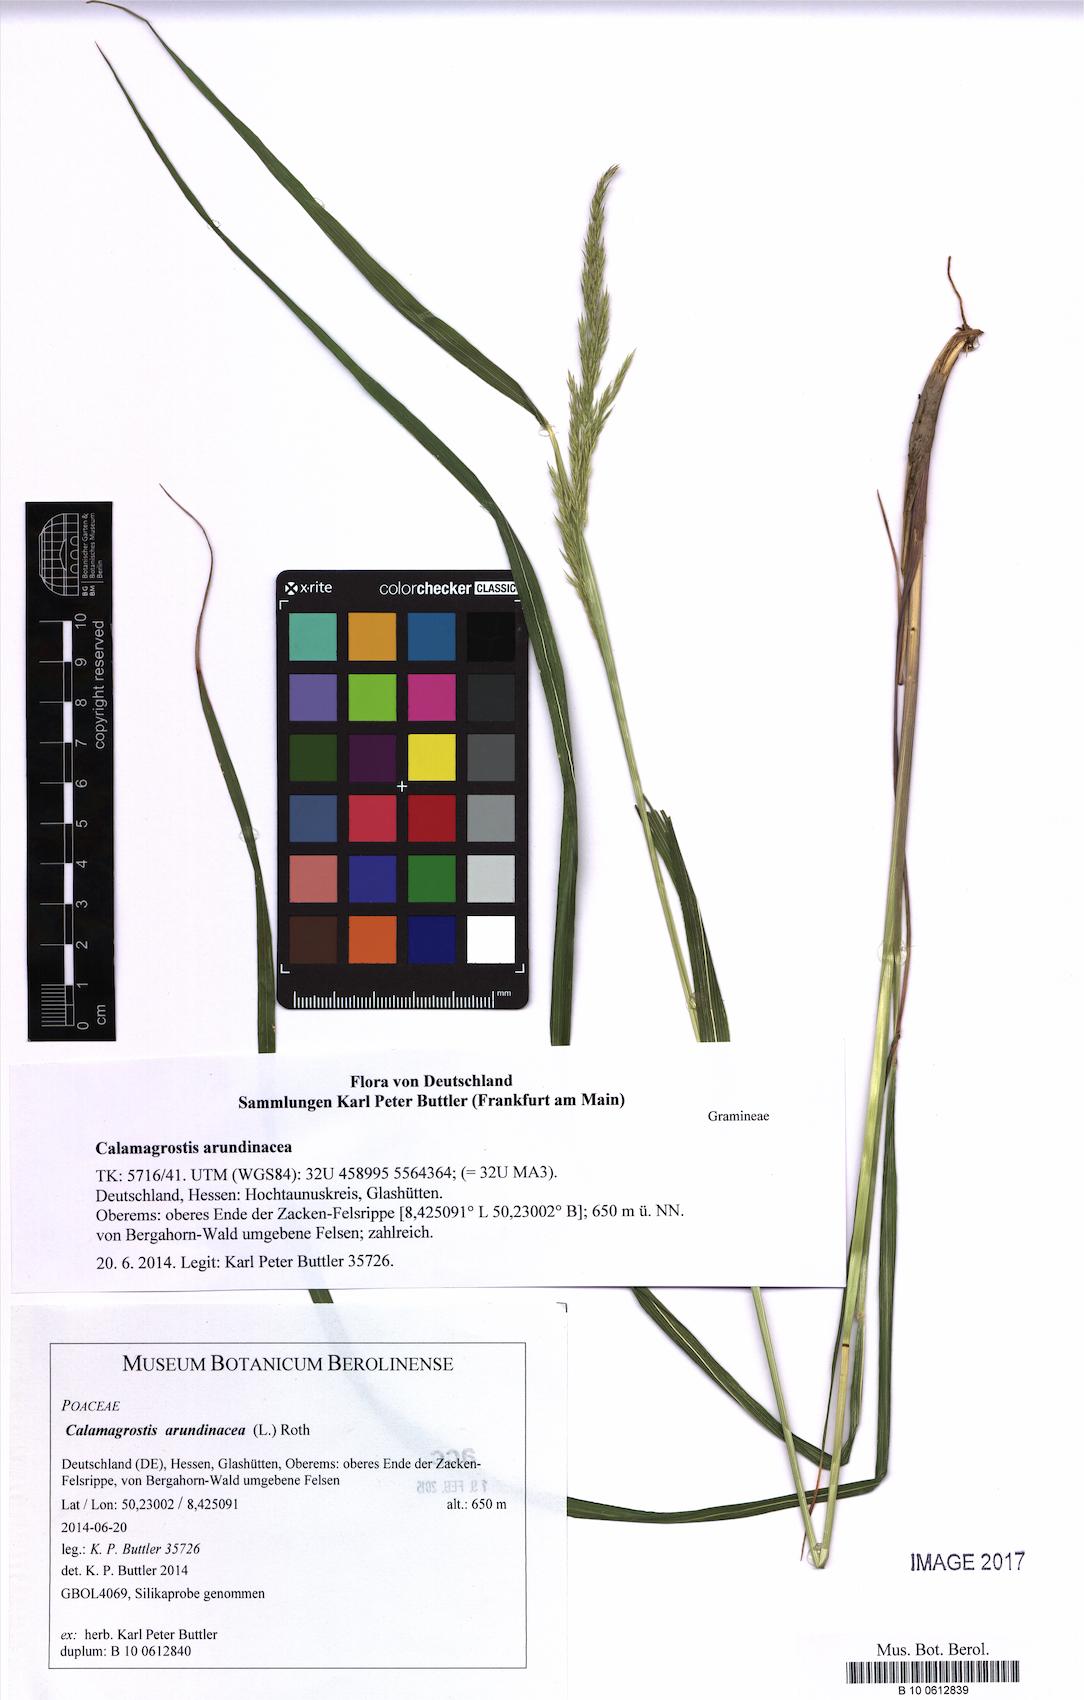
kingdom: Plantae
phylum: Tracheophyta
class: Liliopsida
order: Poales
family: Poaceae
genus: Calamagrostis
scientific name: Calamagrostis arundinacea
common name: Metskastik
